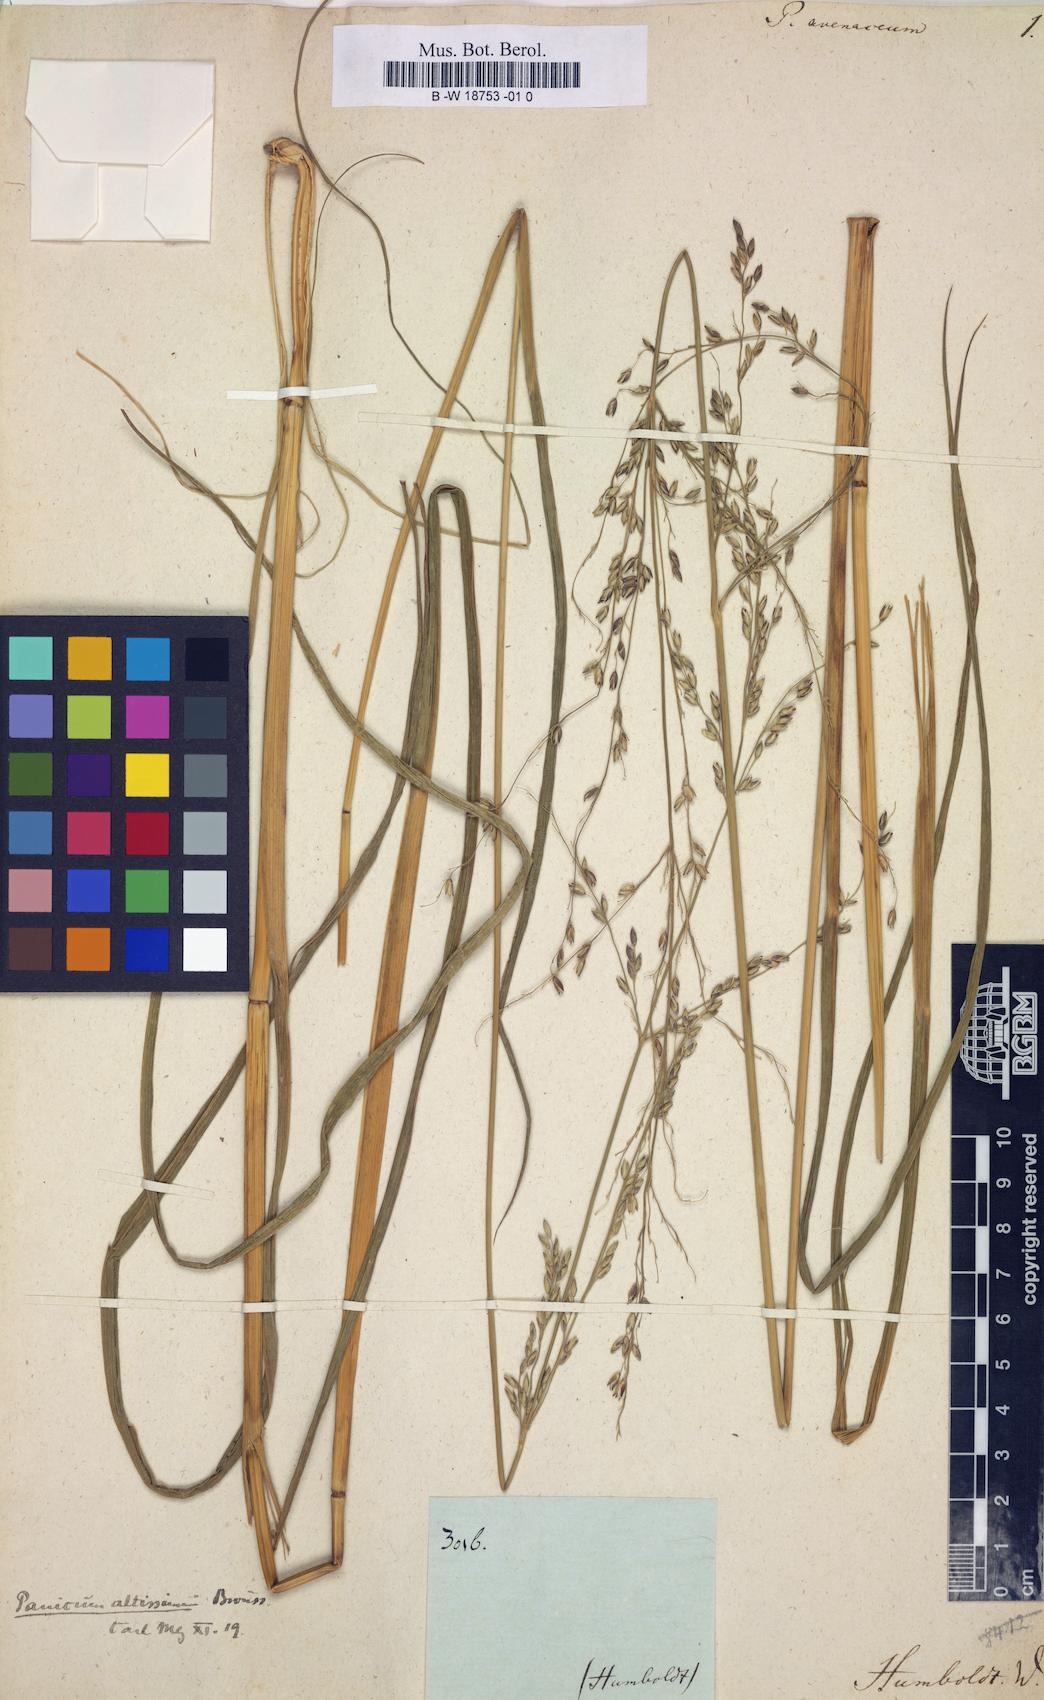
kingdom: Plantae
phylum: Tracheophyta
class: Liliopsida
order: Poales
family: Poaceae
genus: Zuloagaea
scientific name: Zuloagaea bulbosa
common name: Canyon panic grass
